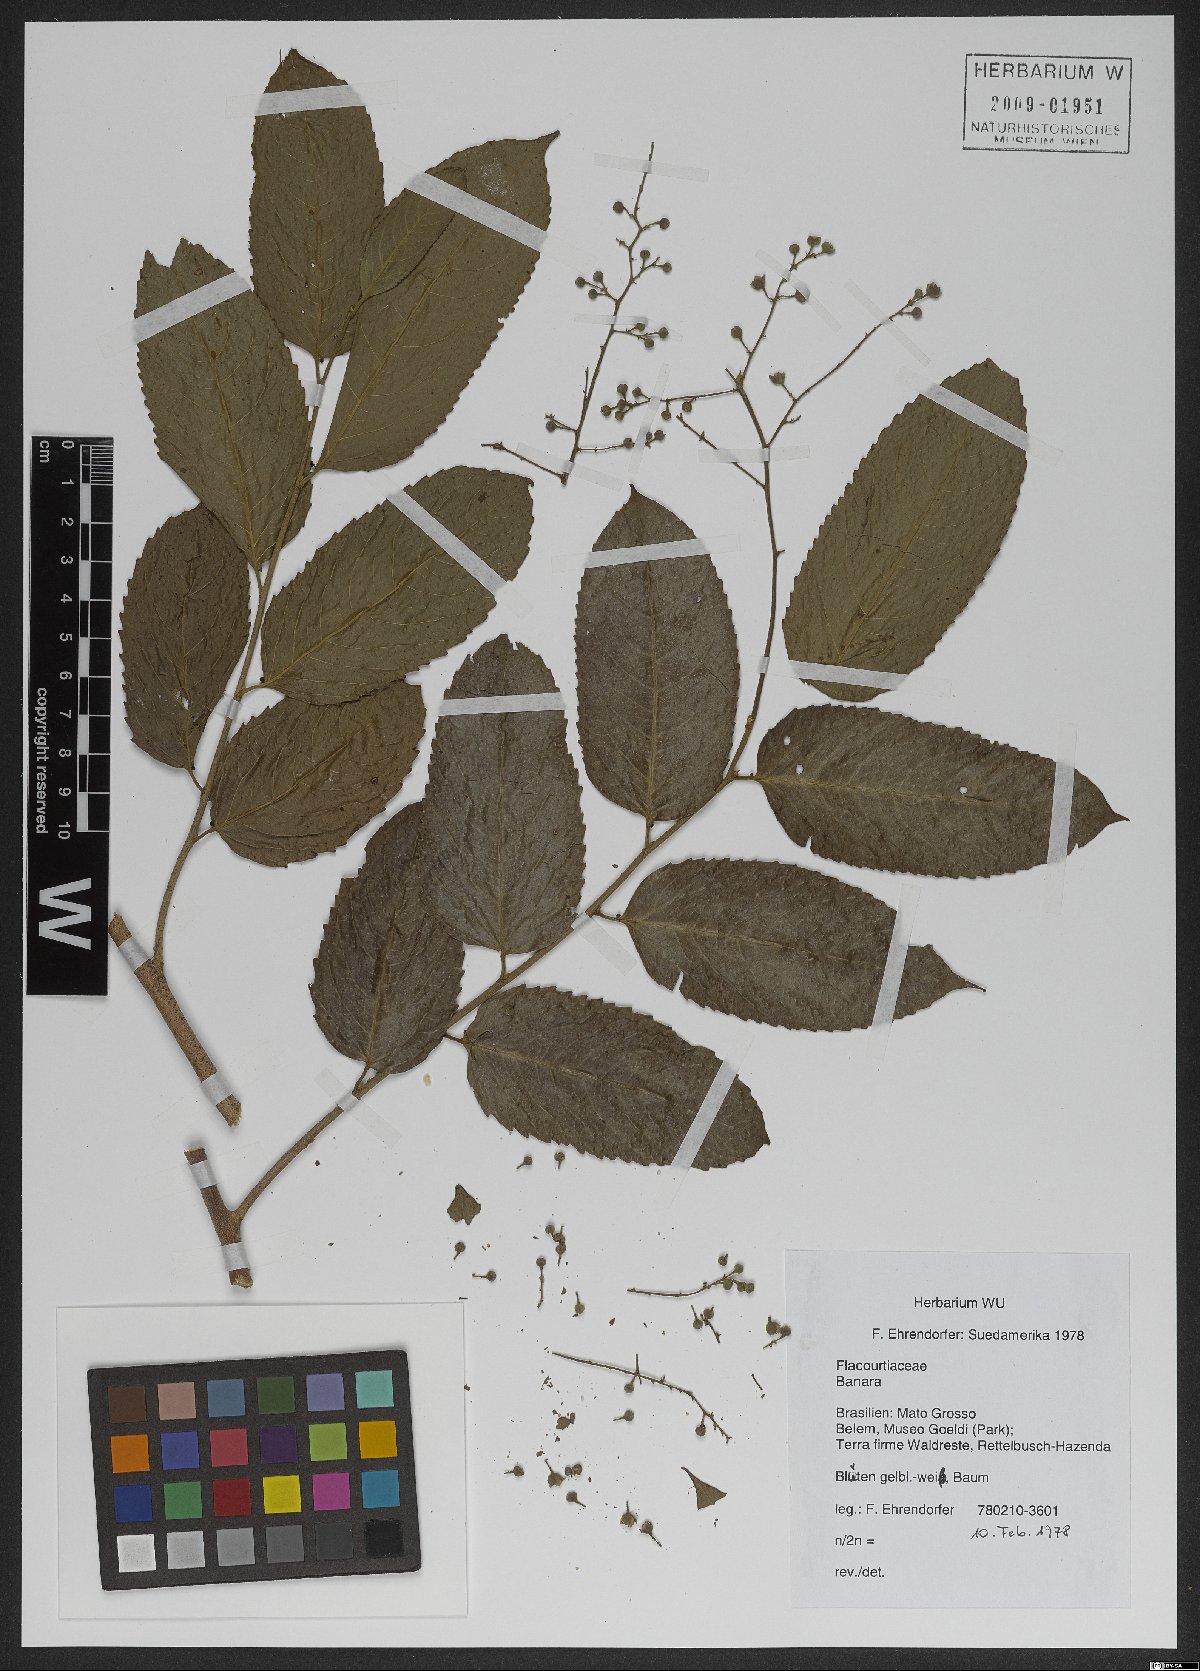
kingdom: Plantae
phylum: Tracheophyta
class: Magnoliopsida
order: Malpighiales
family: Salicaceae
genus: Banara
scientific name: Banara
